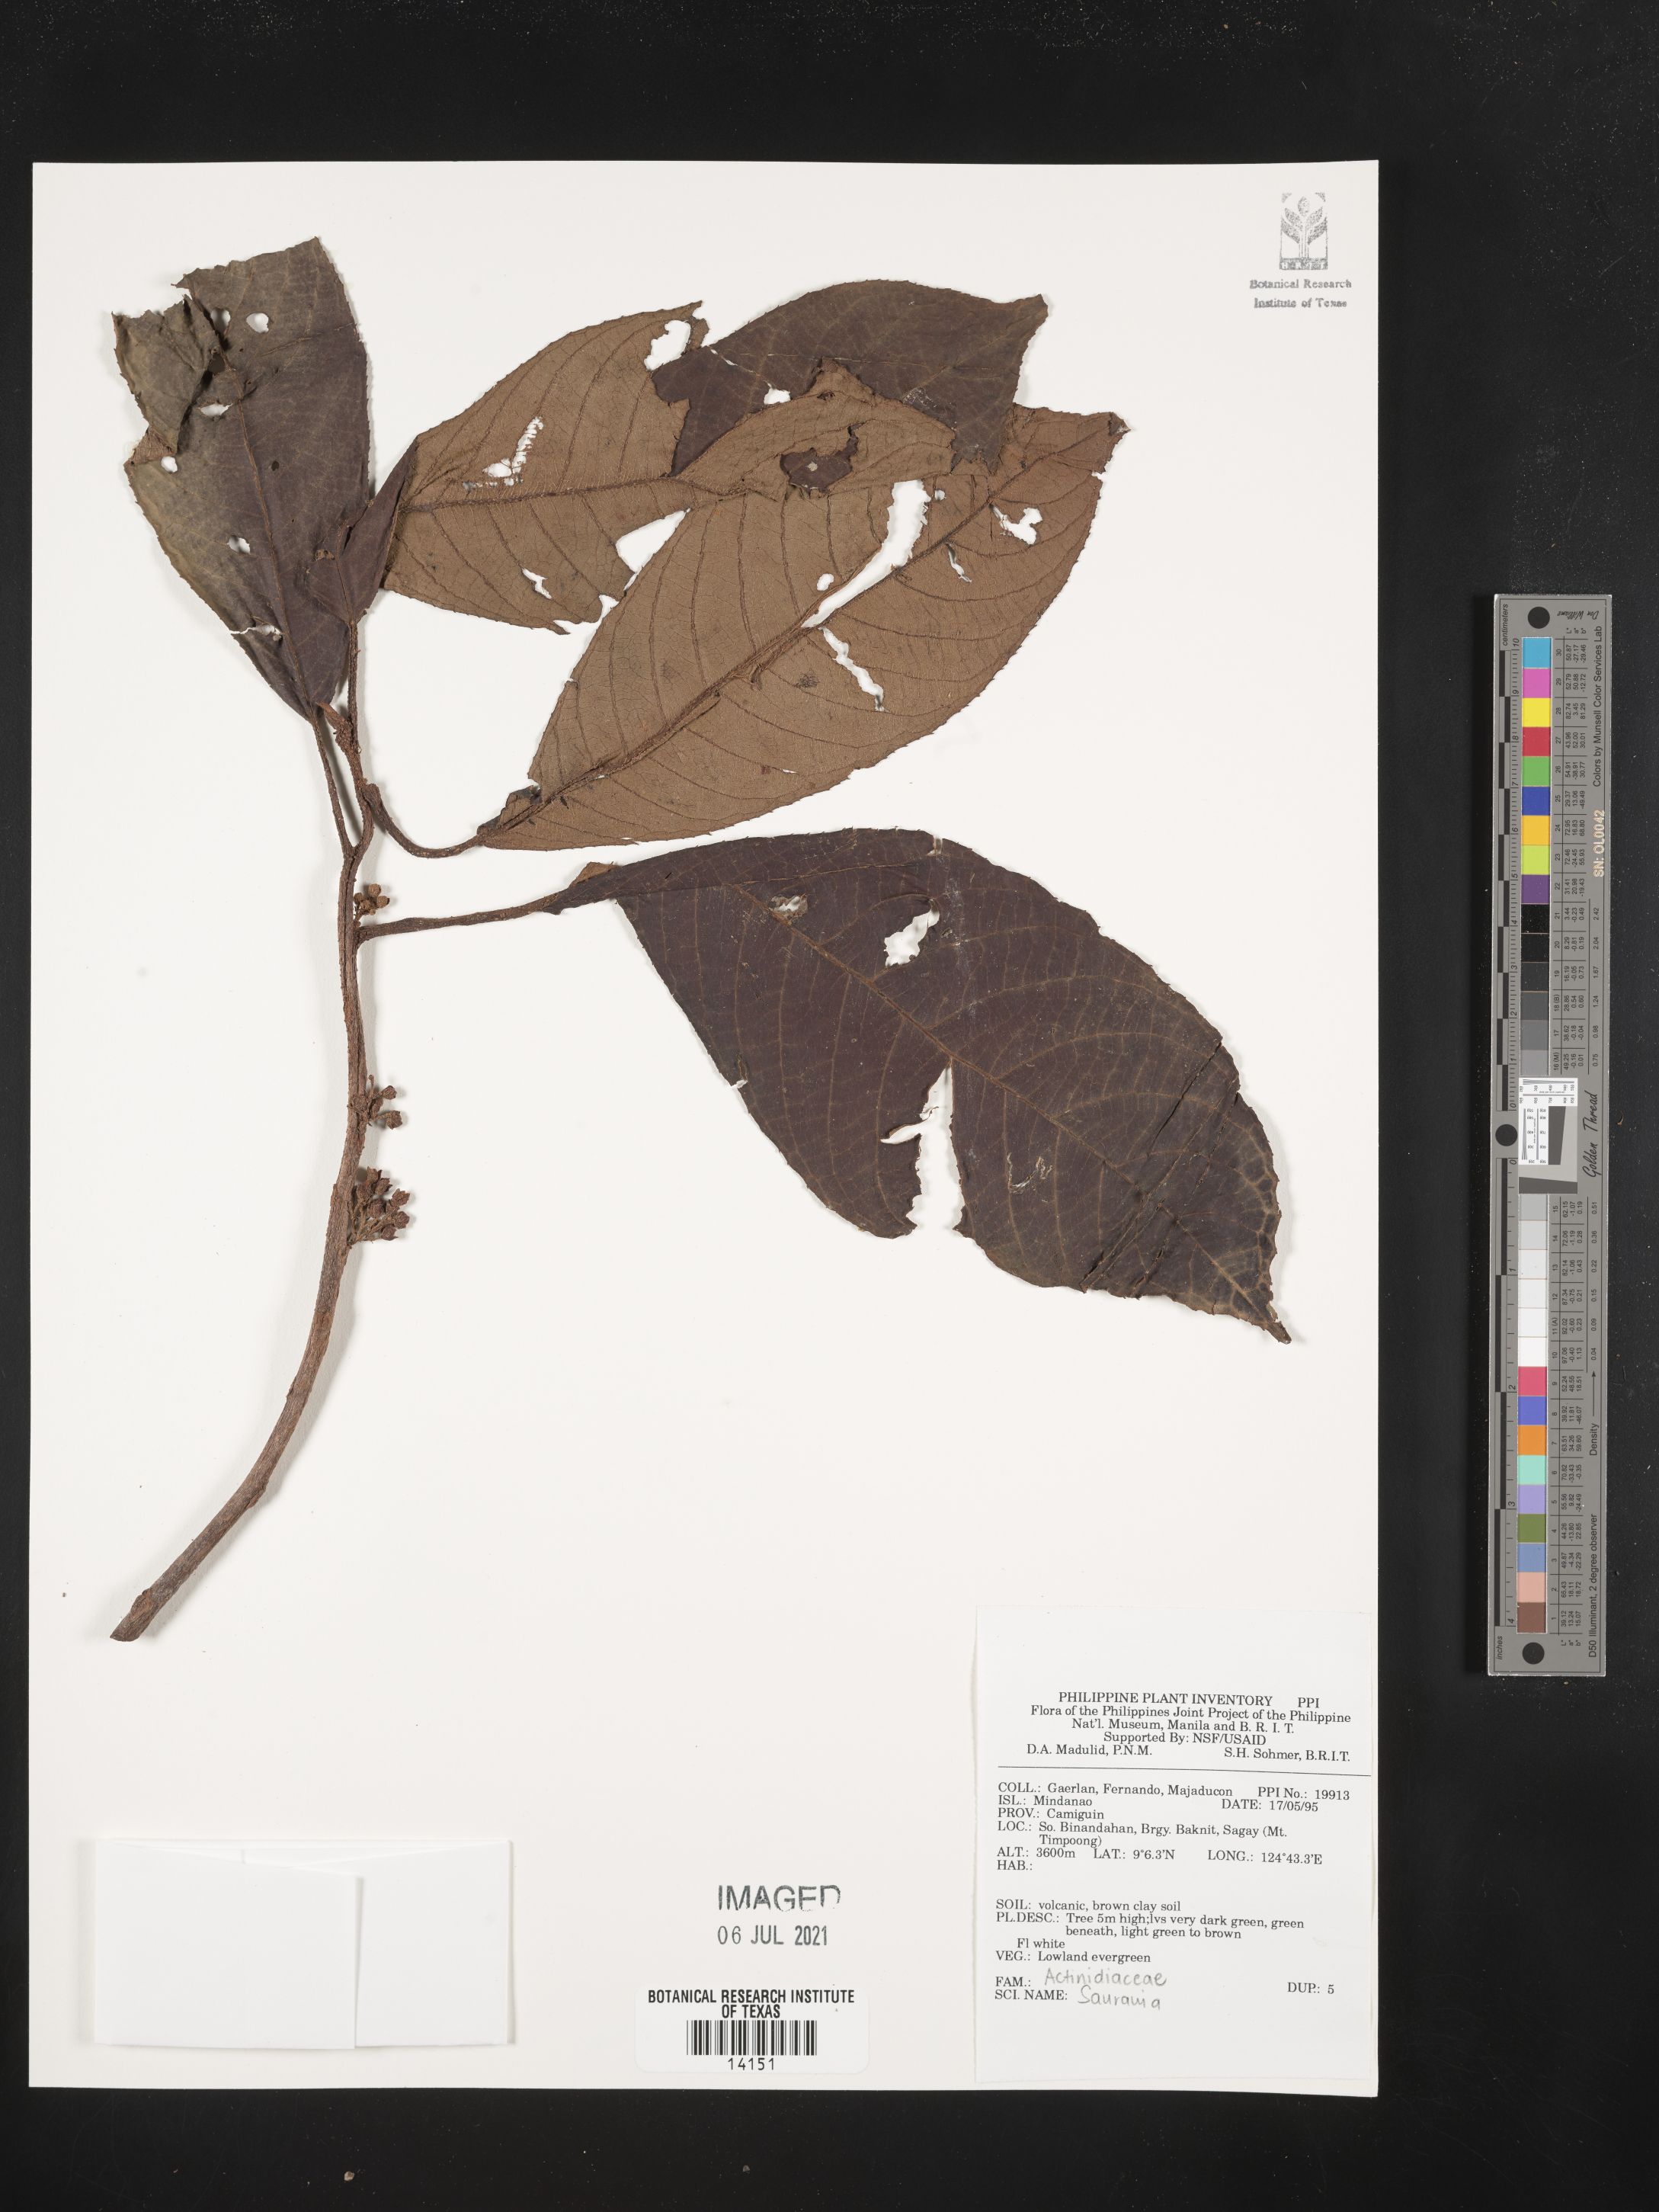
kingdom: Plantae
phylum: Tracheophyta
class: Magnoliopsida
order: Ericales
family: Actinidiaceae
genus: Saurauia
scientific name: Saurauia
